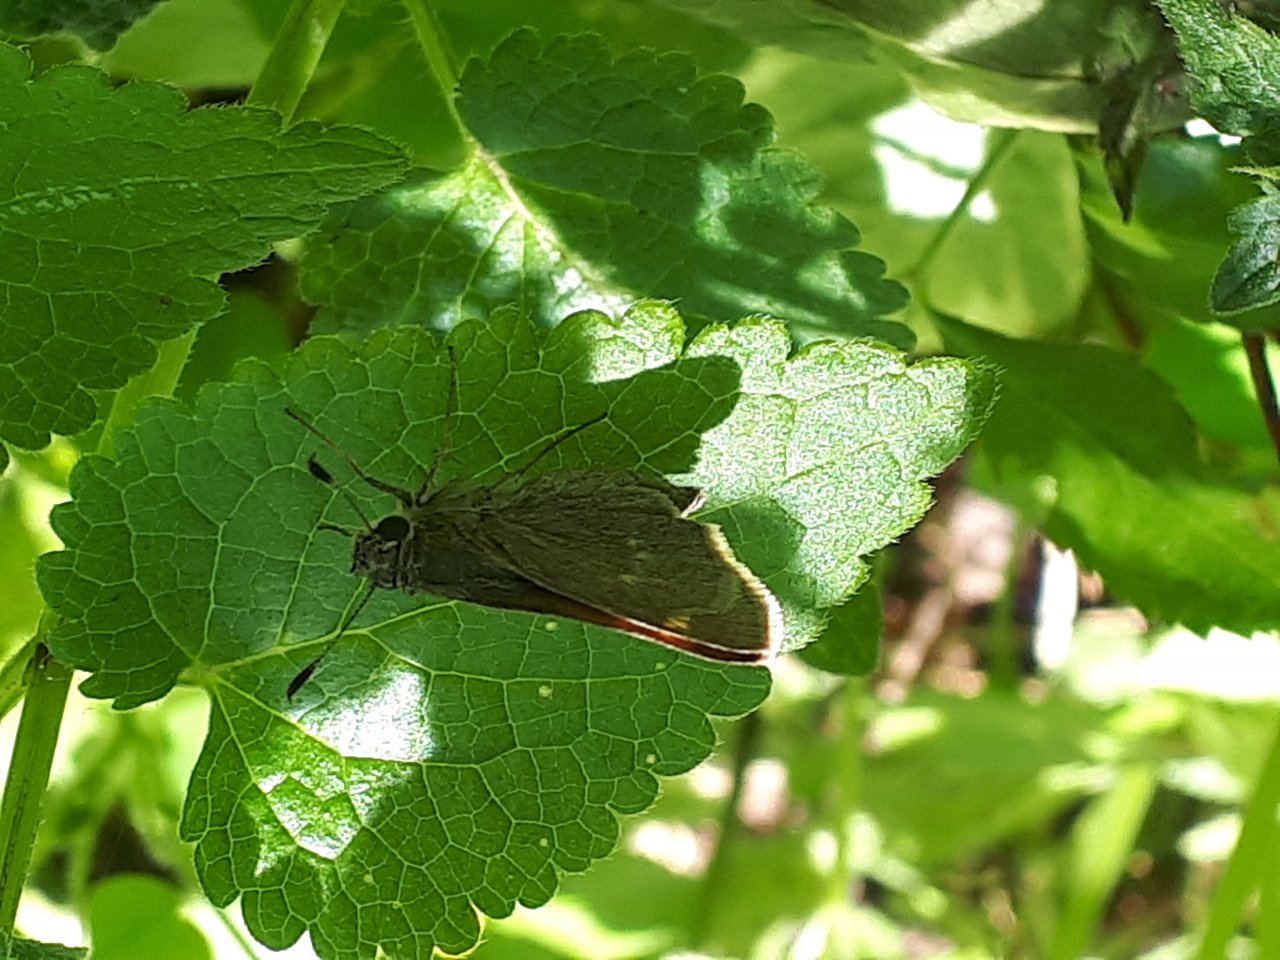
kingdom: Animalia
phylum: Arthropoda
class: Insecta
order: Lepidoptera
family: Hesperiidae
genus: Polites
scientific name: Polites themistocles
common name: Tawny-edged Skipper
